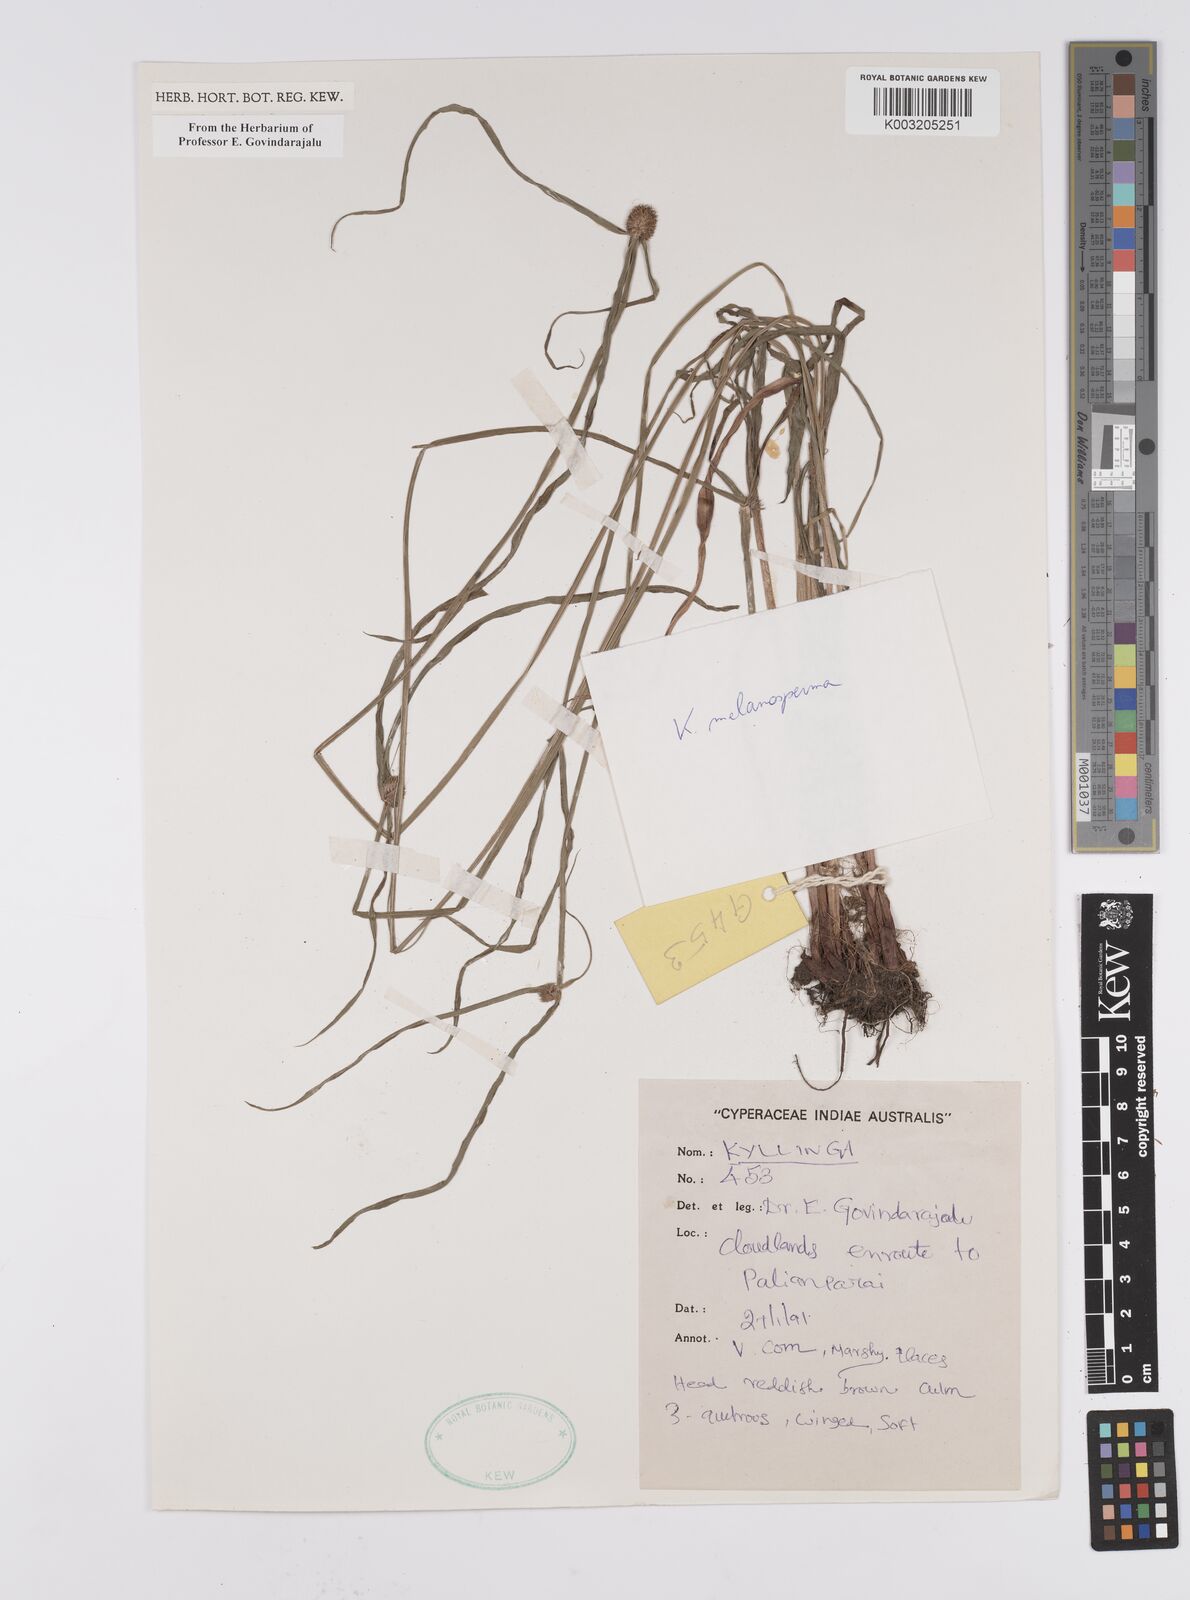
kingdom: Plantae
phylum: Tracheophyta
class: Liliopsida
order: Poales
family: Cyperaceae
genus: Cyperus
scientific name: Cyperus melanospermus
